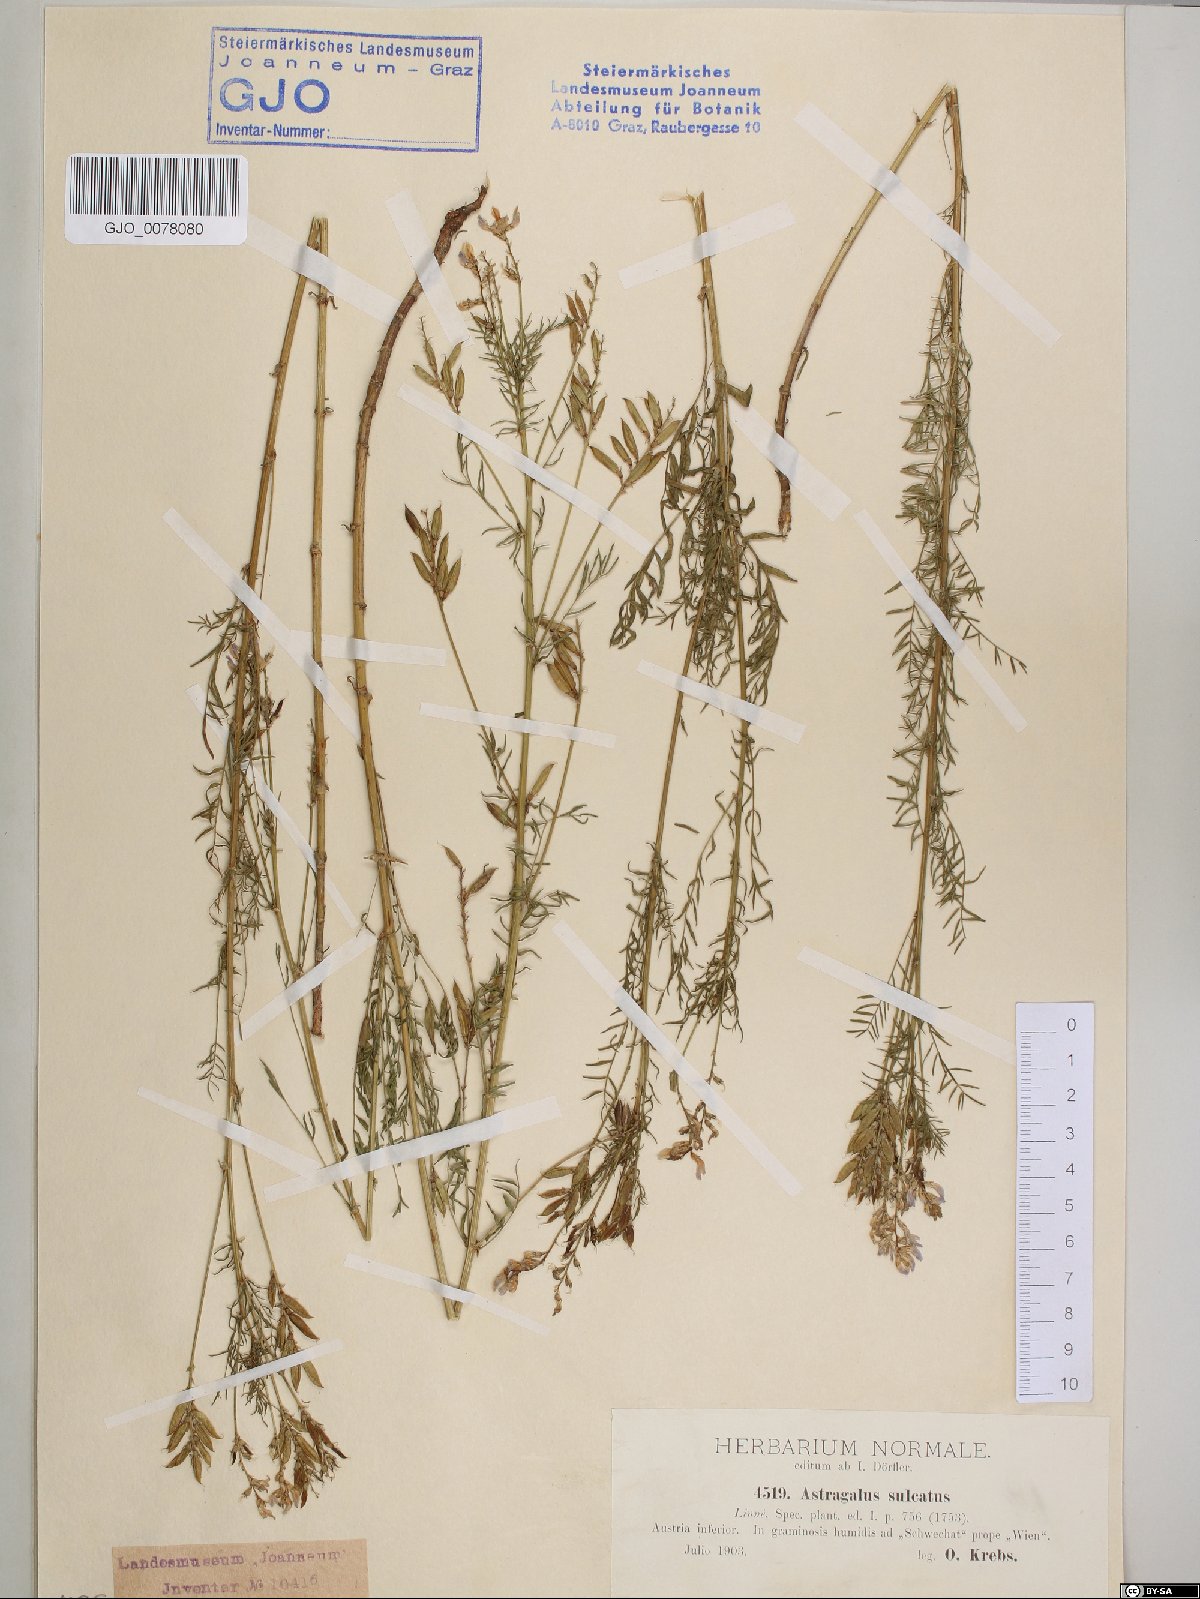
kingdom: Plantae
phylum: Tracheophyta
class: Magnoliopsida
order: Fabales
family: Fabaceae
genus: Astragalus
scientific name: Astragalus sulcatus
